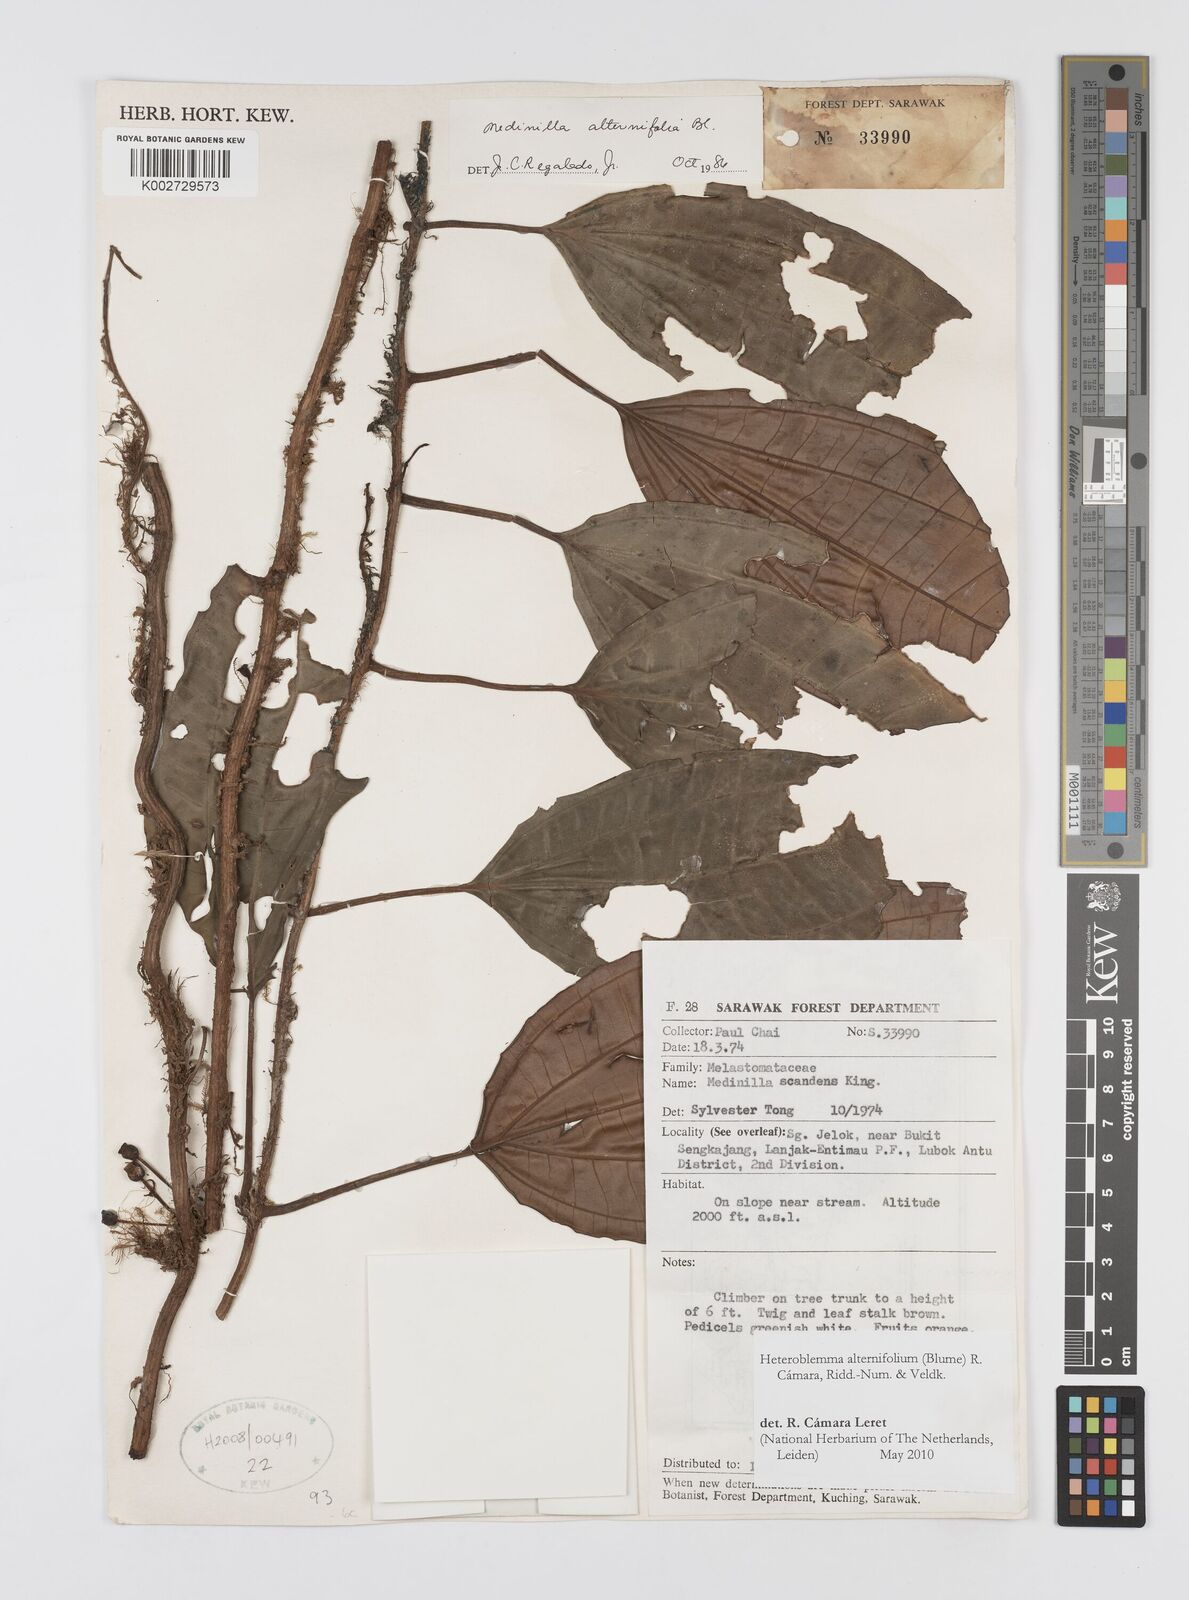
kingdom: Plantae
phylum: Tracheophyta
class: Magnoliopsida
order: Myrtales
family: Melastomataceae
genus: Heteroblemma
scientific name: Heteroblemma alternifolium
